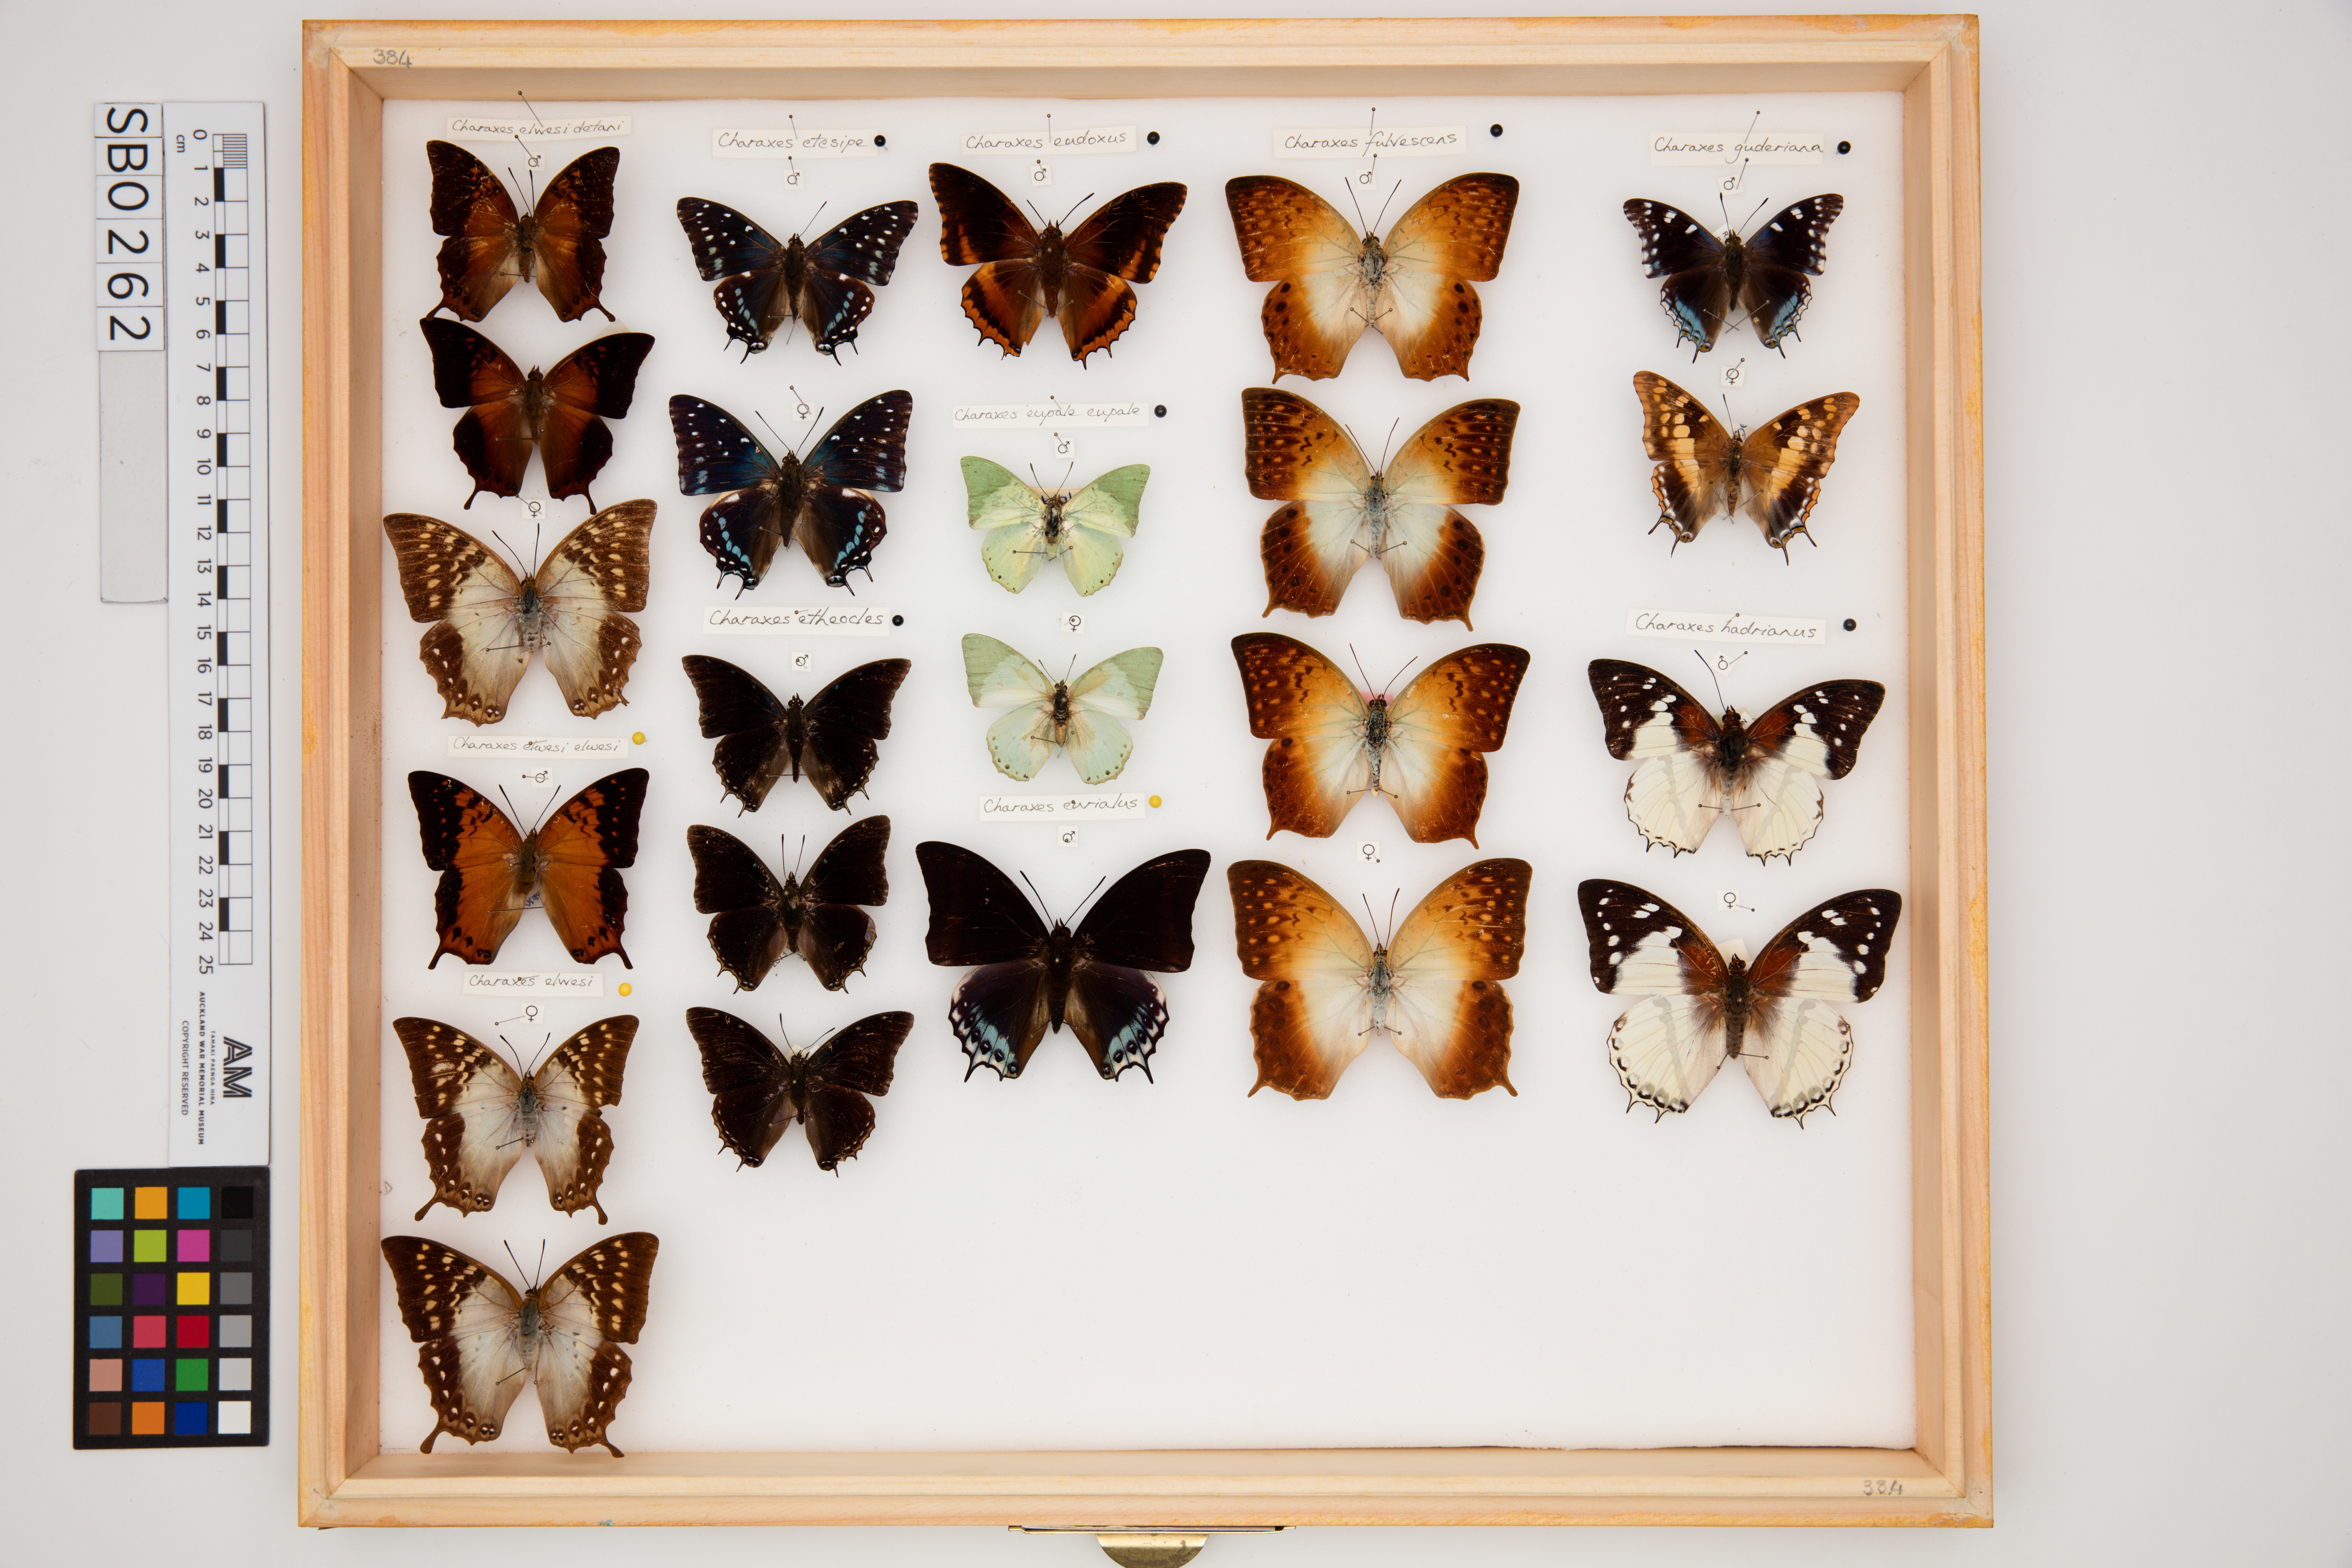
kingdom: Animalia
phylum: Arthropoda
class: Insecta
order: Lepidoptera
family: Nymphalidae
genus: Charaxes
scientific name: Charaxes fulvescens
